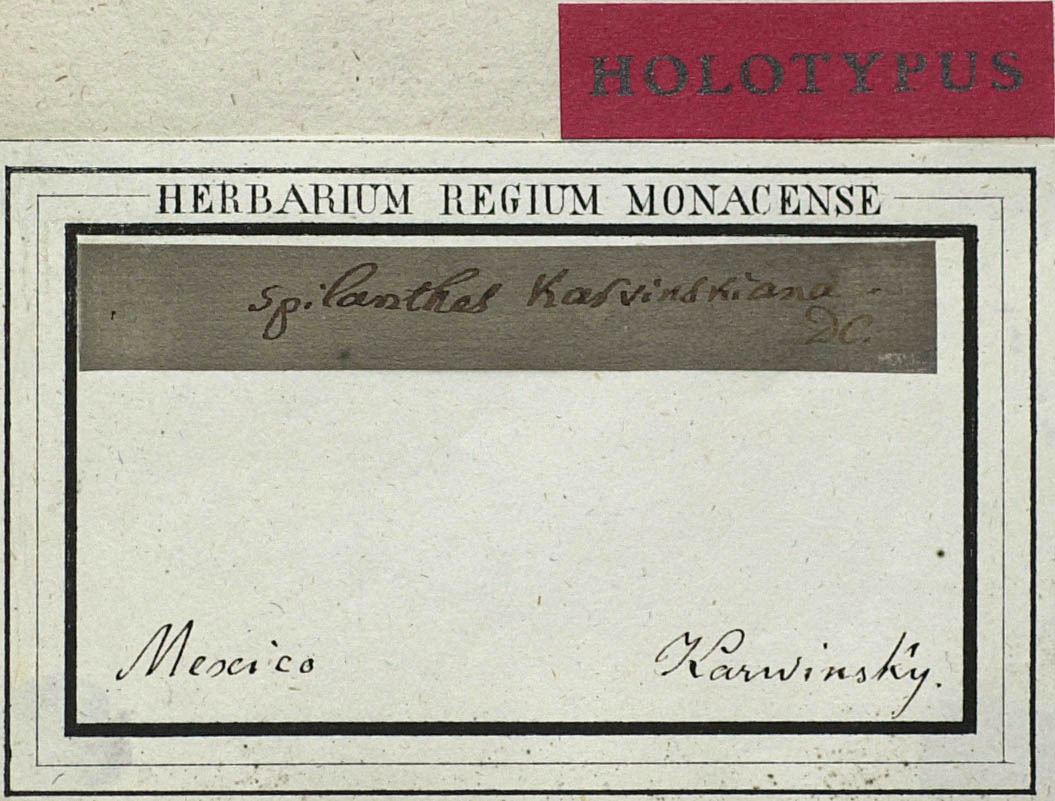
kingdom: Plantae
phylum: Tracheophyta
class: Magnoliopsida
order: Asterales
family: Asteraceae
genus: Jaegeria
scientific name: Jaegeria hirta
